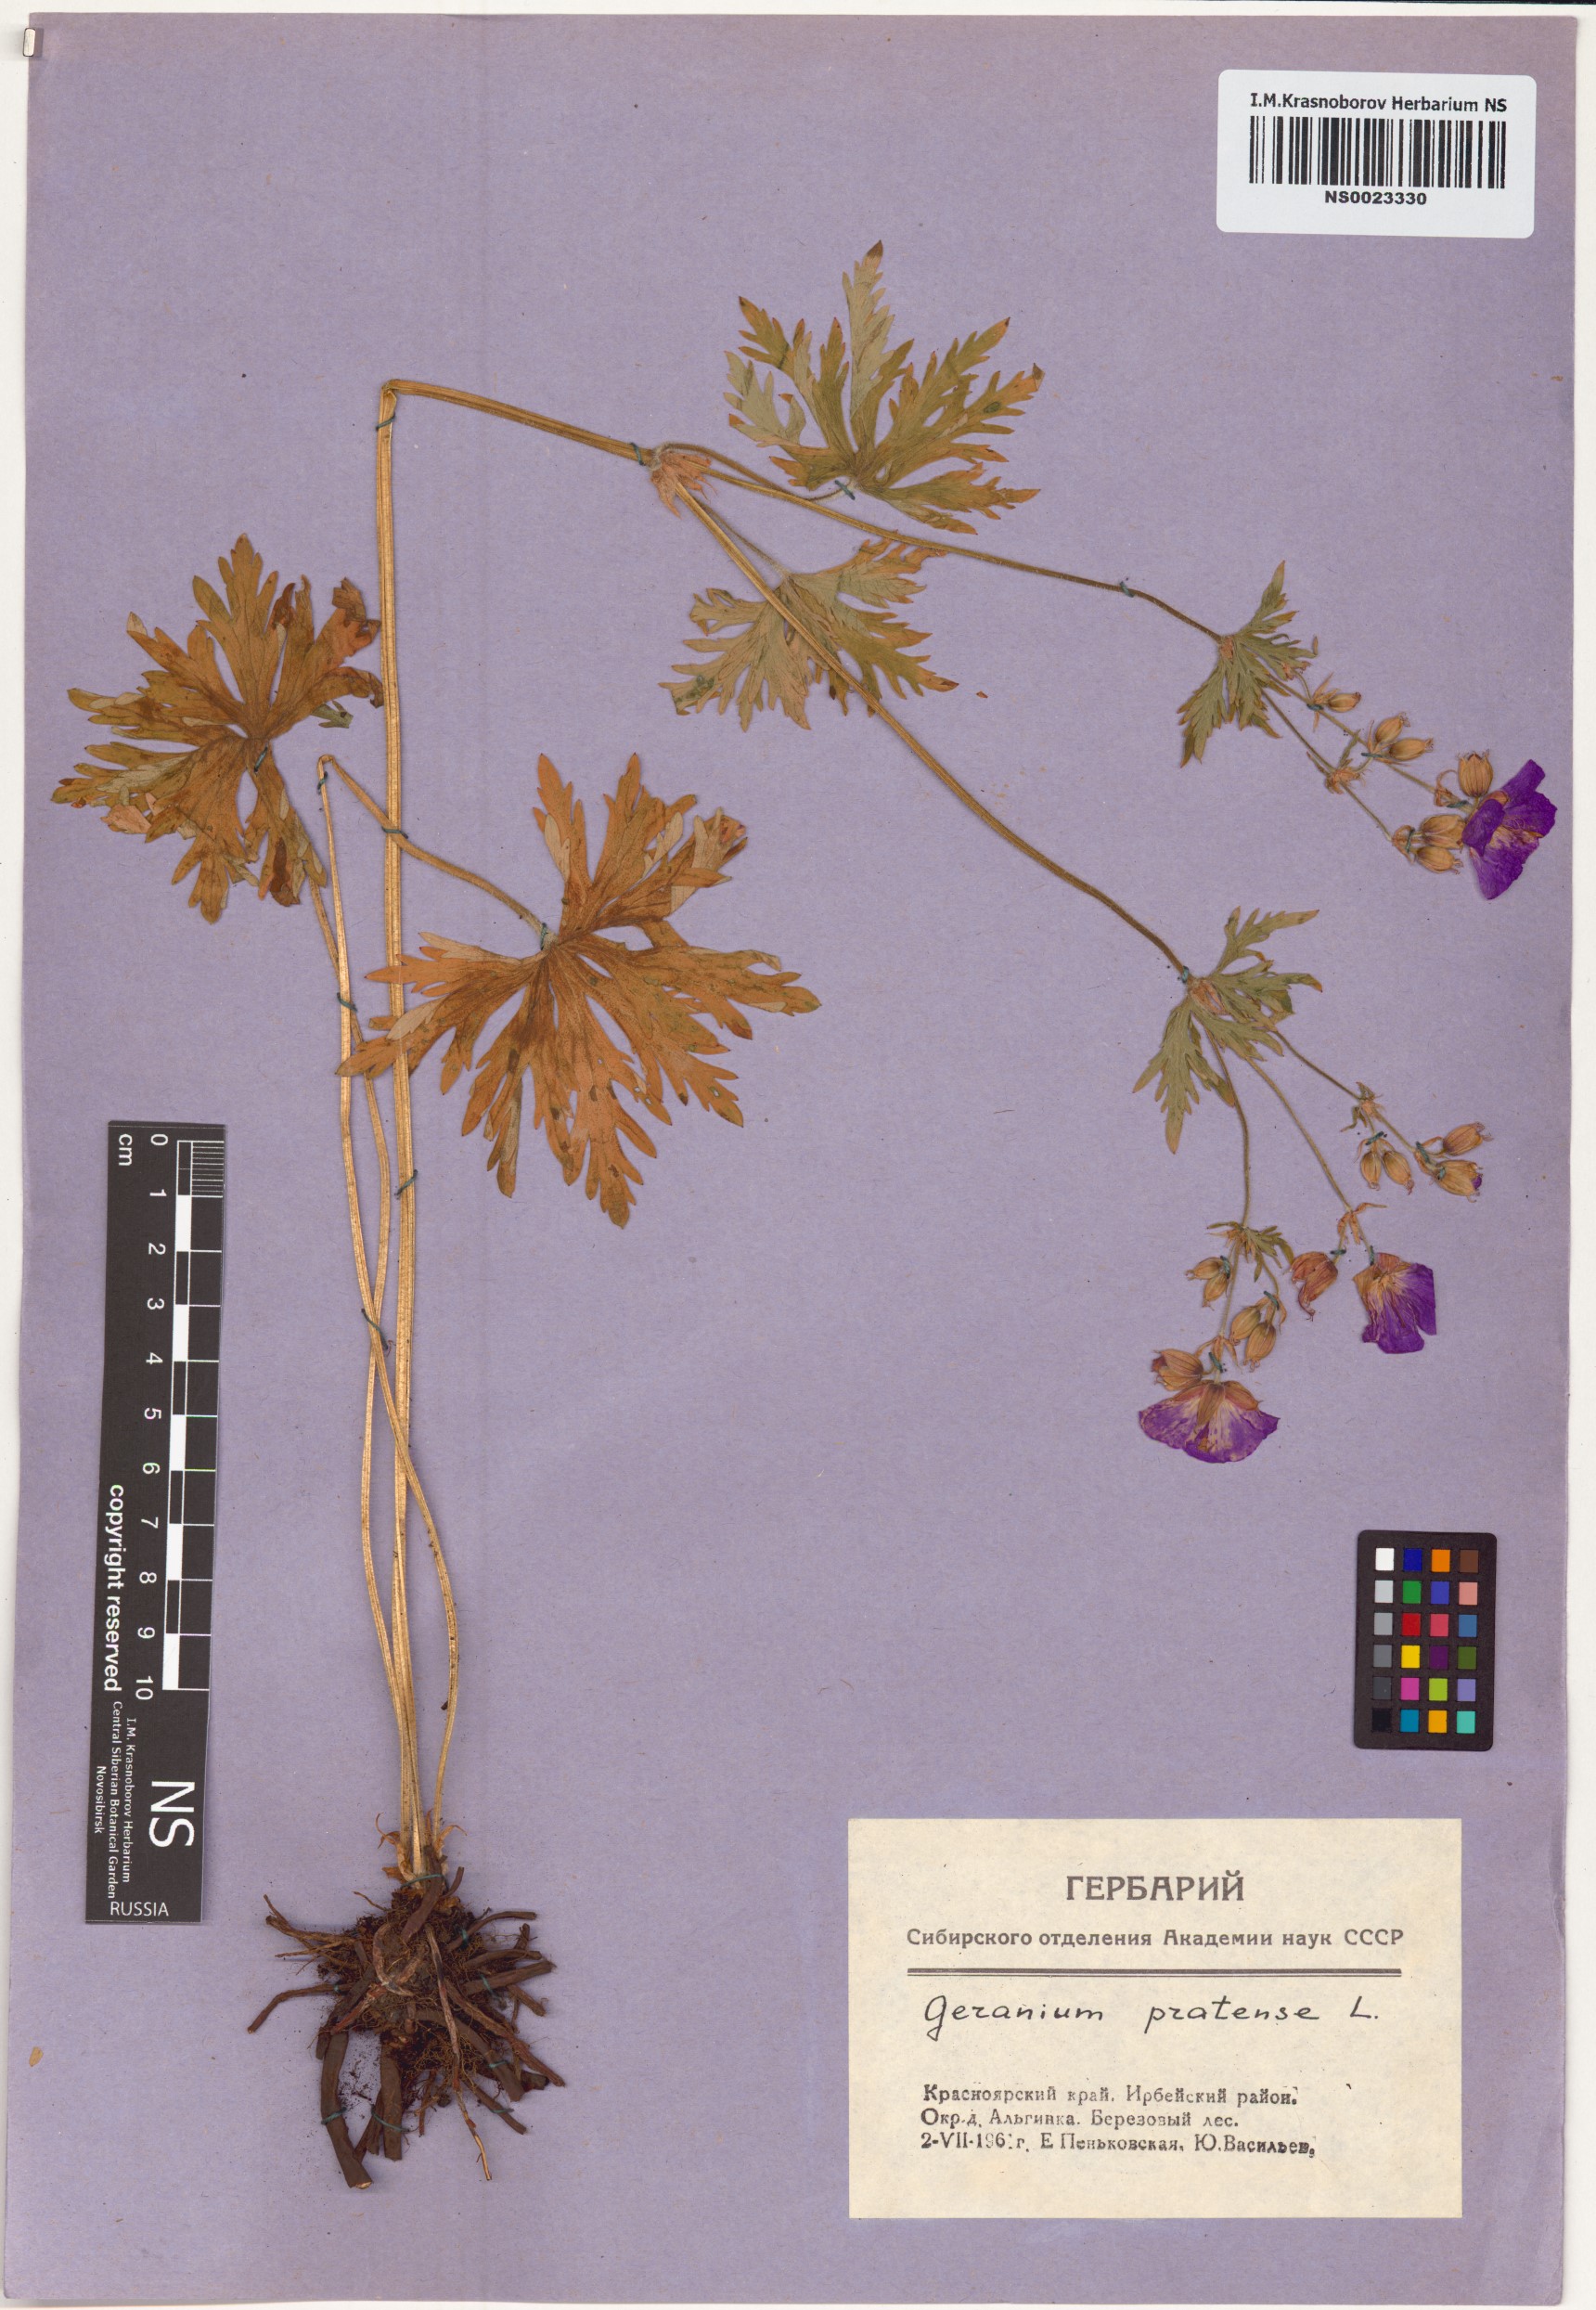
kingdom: Plantae
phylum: Tracheophyta
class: Magnoliopsida
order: Geraniales
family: Geraniaceae
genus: Geranium
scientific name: Geranium pratense
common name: Meadow crane's-bill
